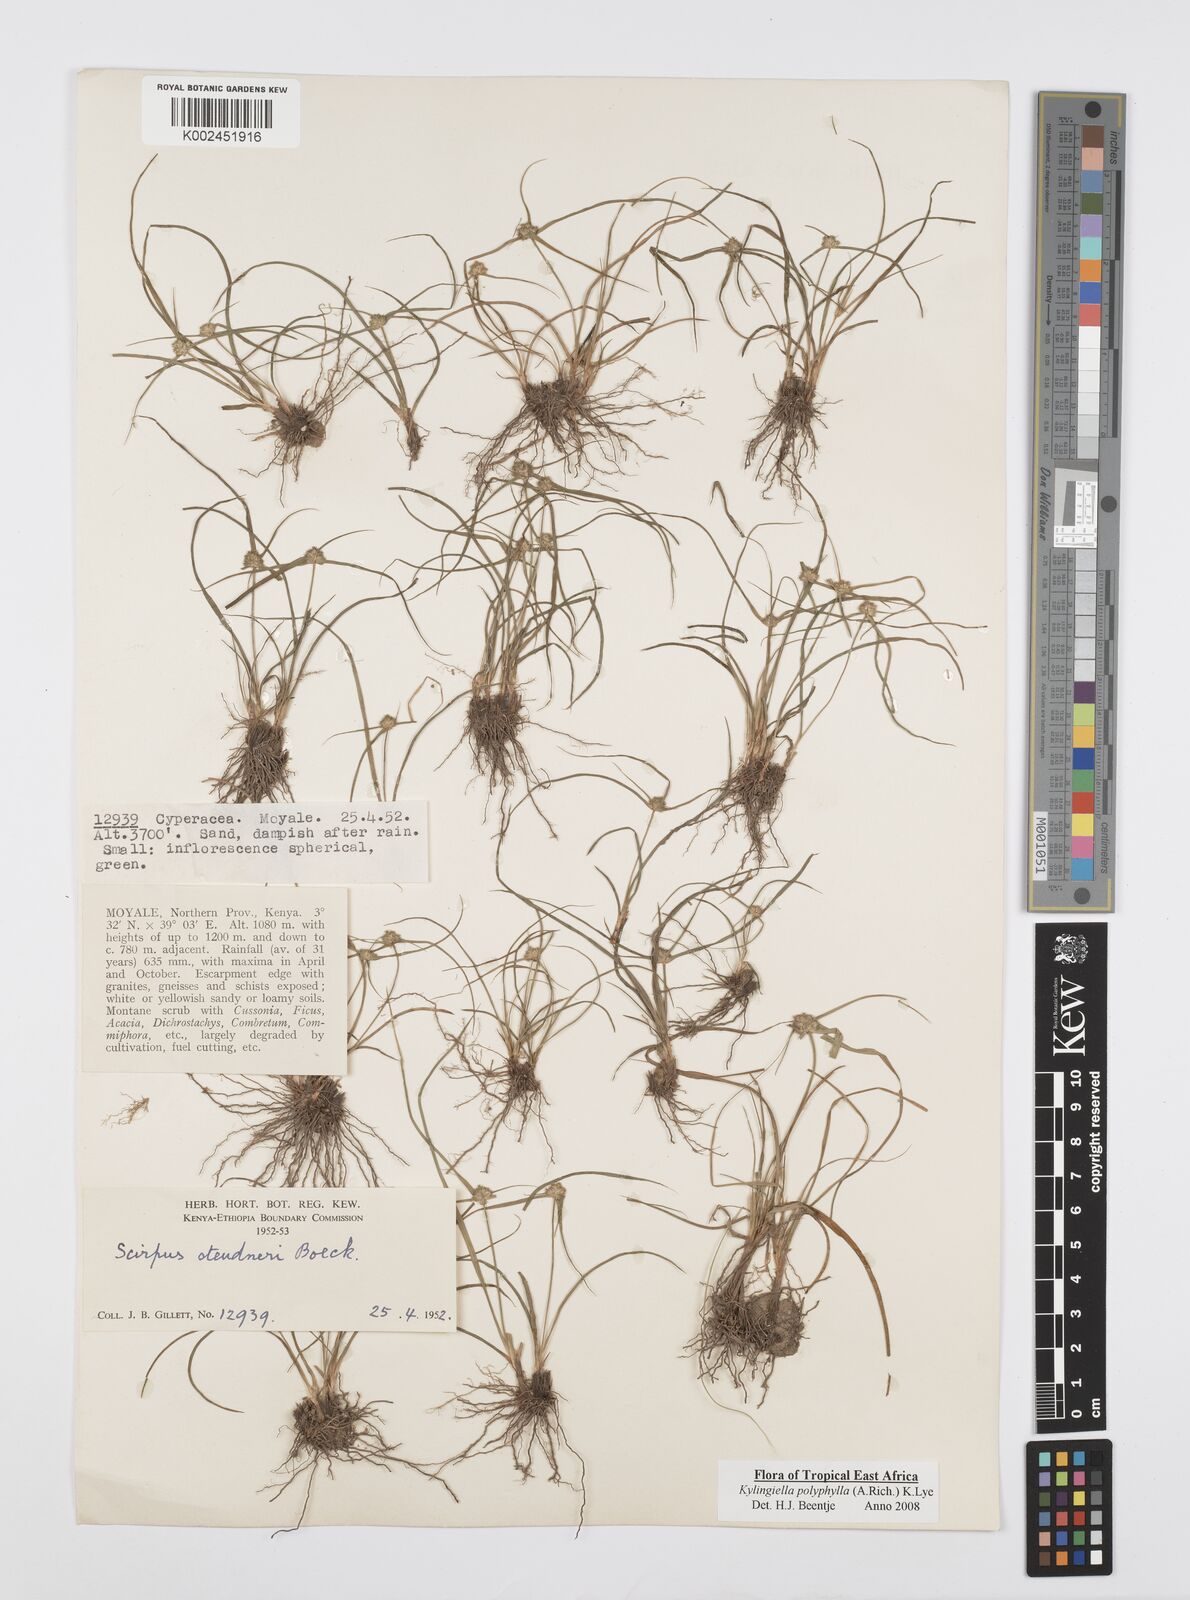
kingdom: Plantae
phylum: Tracheophyta
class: Liliopsida
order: Poales
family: Cyperaceae
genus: Cyperus
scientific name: Cyperus bulbosus
